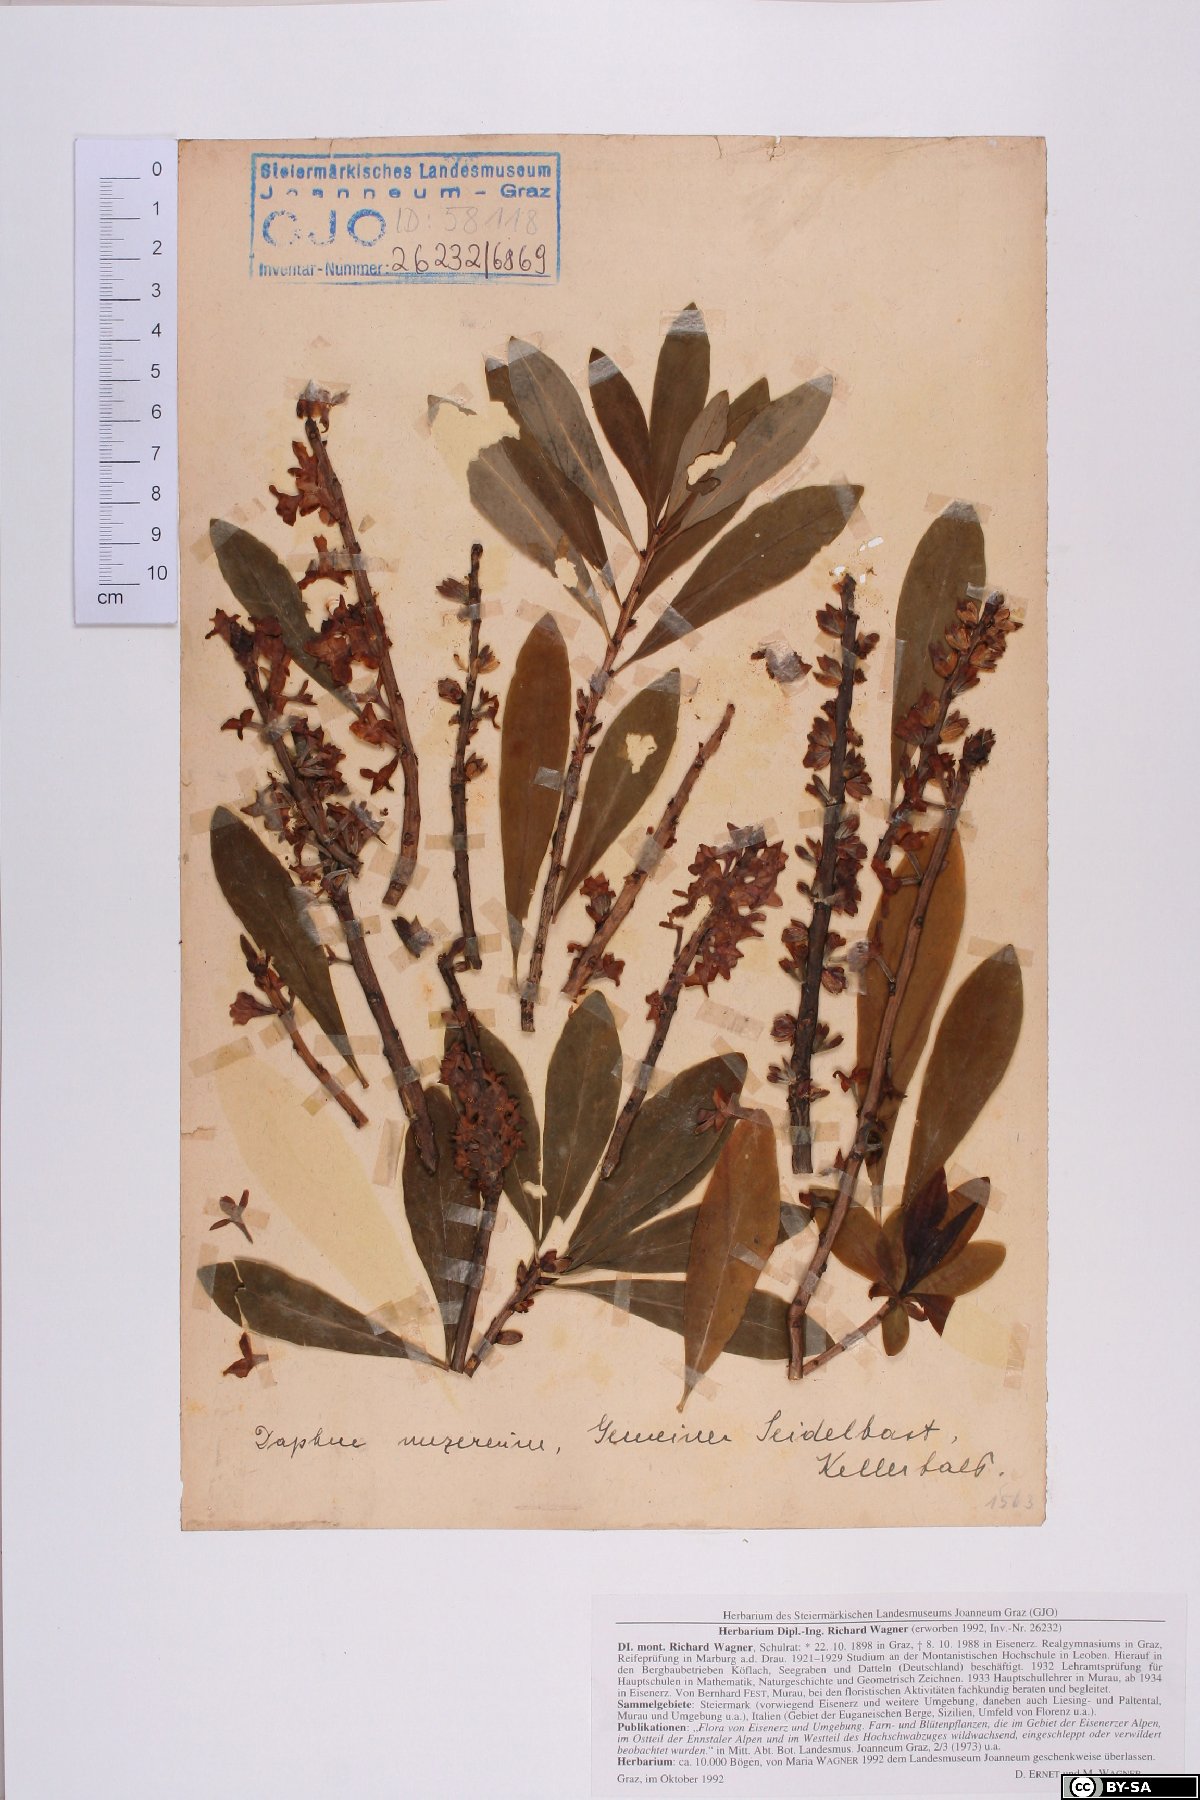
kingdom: Plantae
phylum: Tracheophyta
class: Magnoliopsida
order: Malvales
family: Thymelaeaceae
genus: Daphne
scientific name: Daphne mezereum
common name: Mezereon
